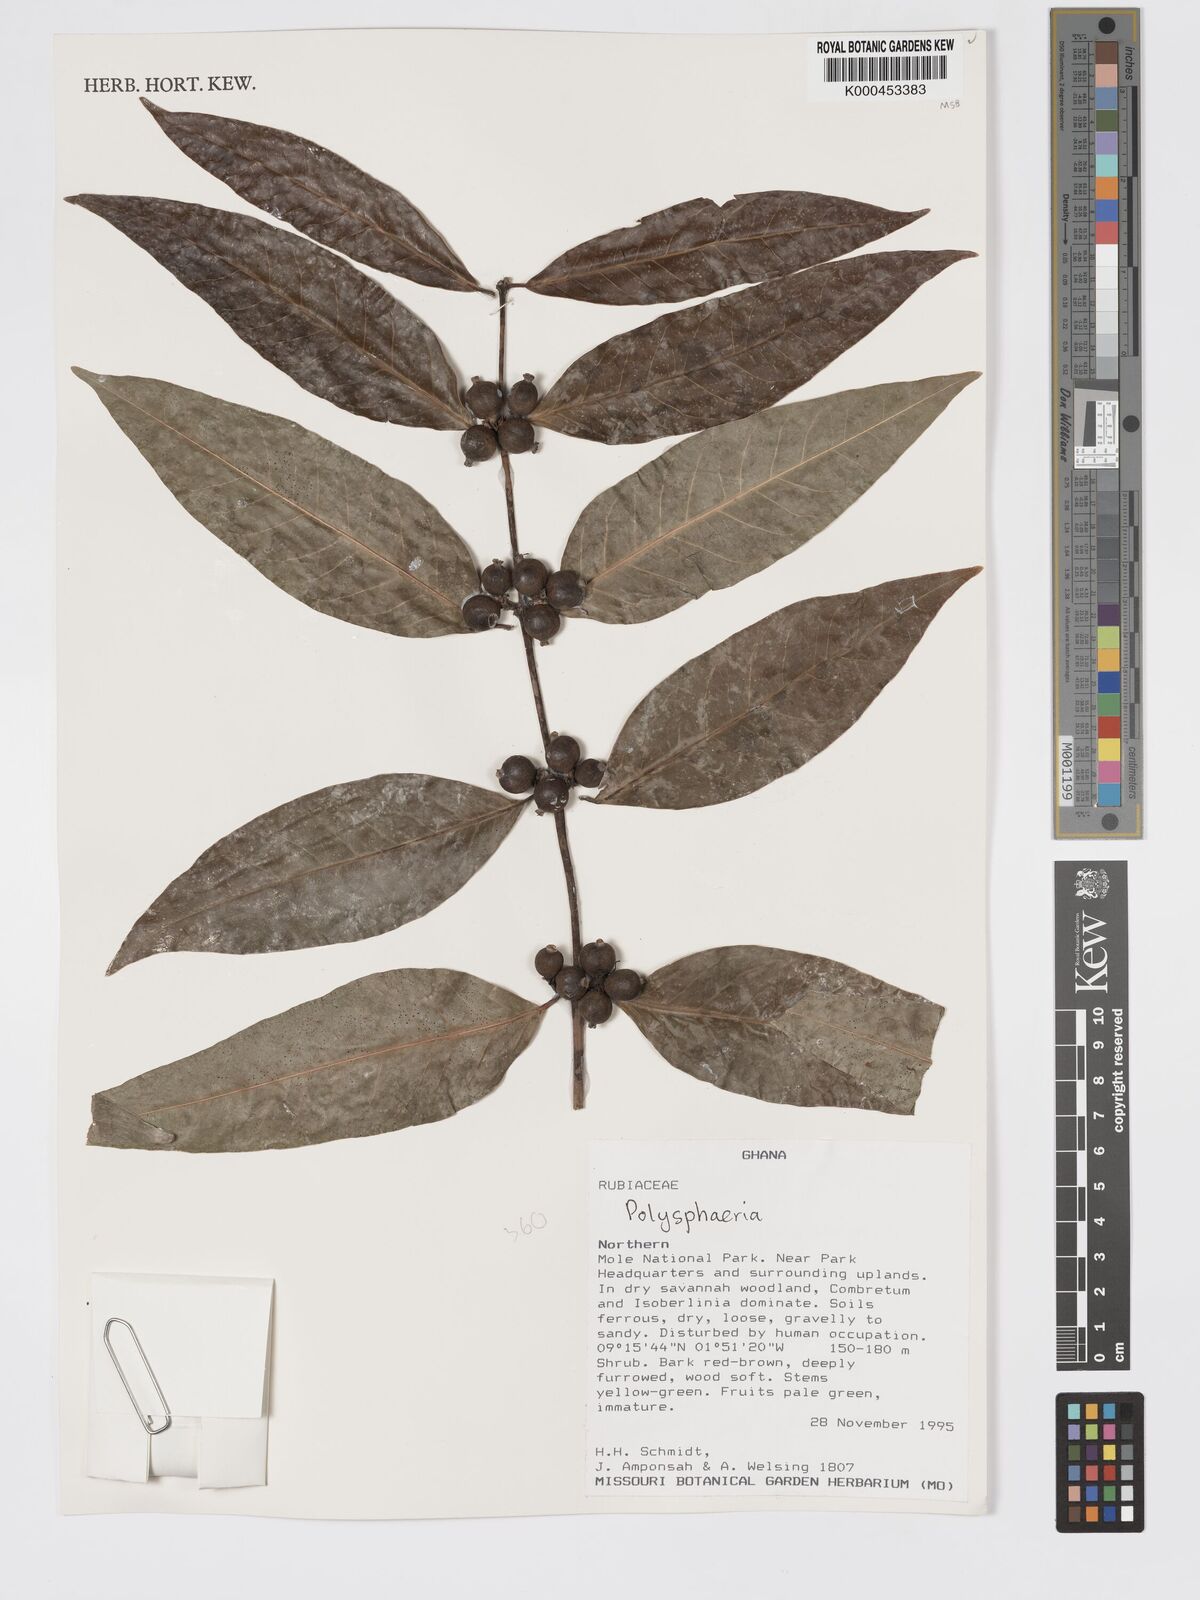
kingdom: Plantae
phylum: Tracheophyta
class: Magnoliopsida
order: Gentianales
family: Rubiaceae
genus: Polysphaeria
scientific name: Polysphaeria arbuscula
